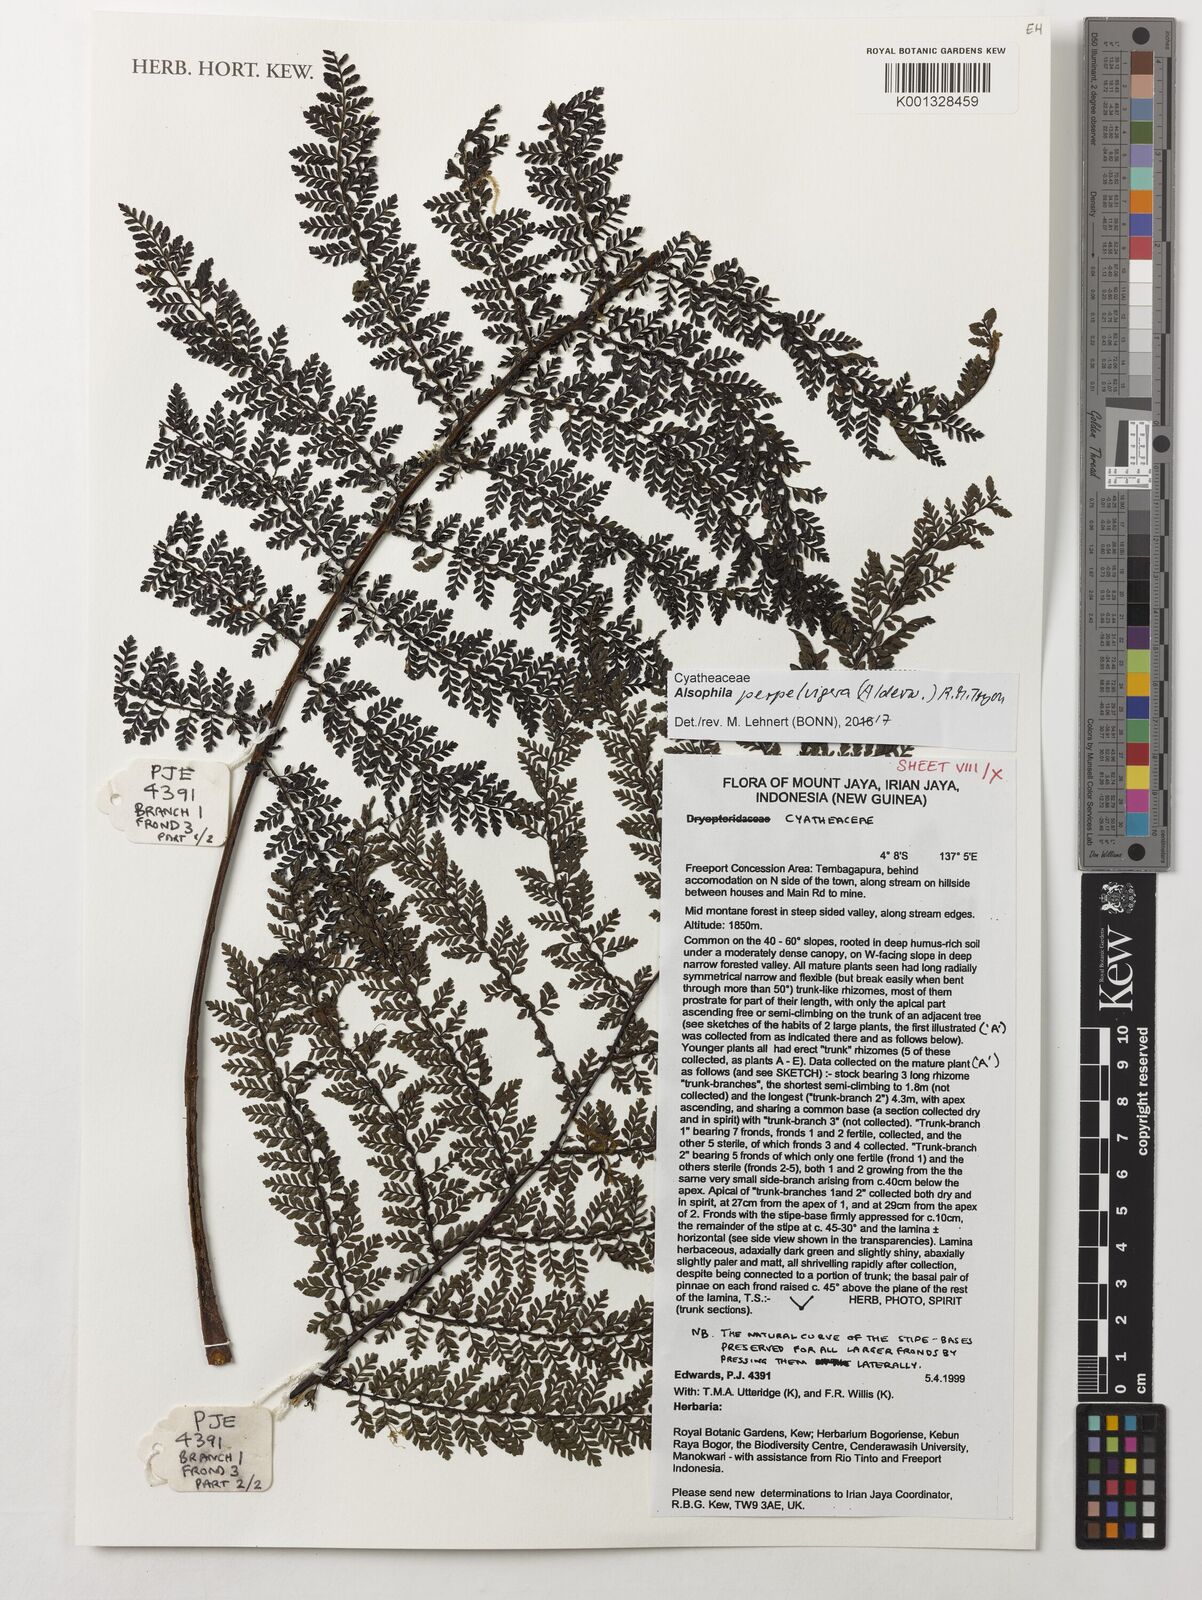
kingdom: Plantae
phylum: Tracheophyta
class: Polypodiopsida
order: Cyatheales
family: Cyatheaceae
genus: Alsophila
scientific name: Alsophila perpelvigera
